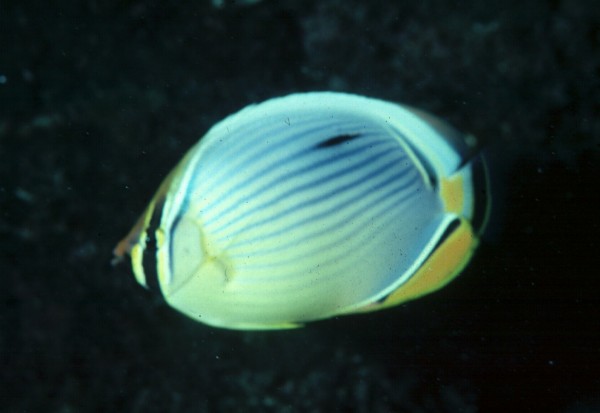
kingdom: Animalia
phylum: Chordata
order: Perciformes
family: Chaetodontidae
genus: Chaetodon
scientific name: Chaetodon trifasciatus
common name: Redfin butterflyfish
